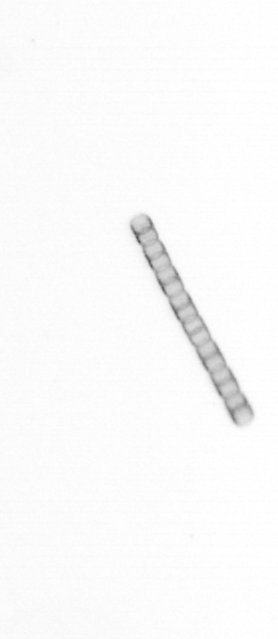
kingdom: Chromista
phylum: Ochrophyta
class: Bacillariophyceae
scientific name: Bacillariophyceae
